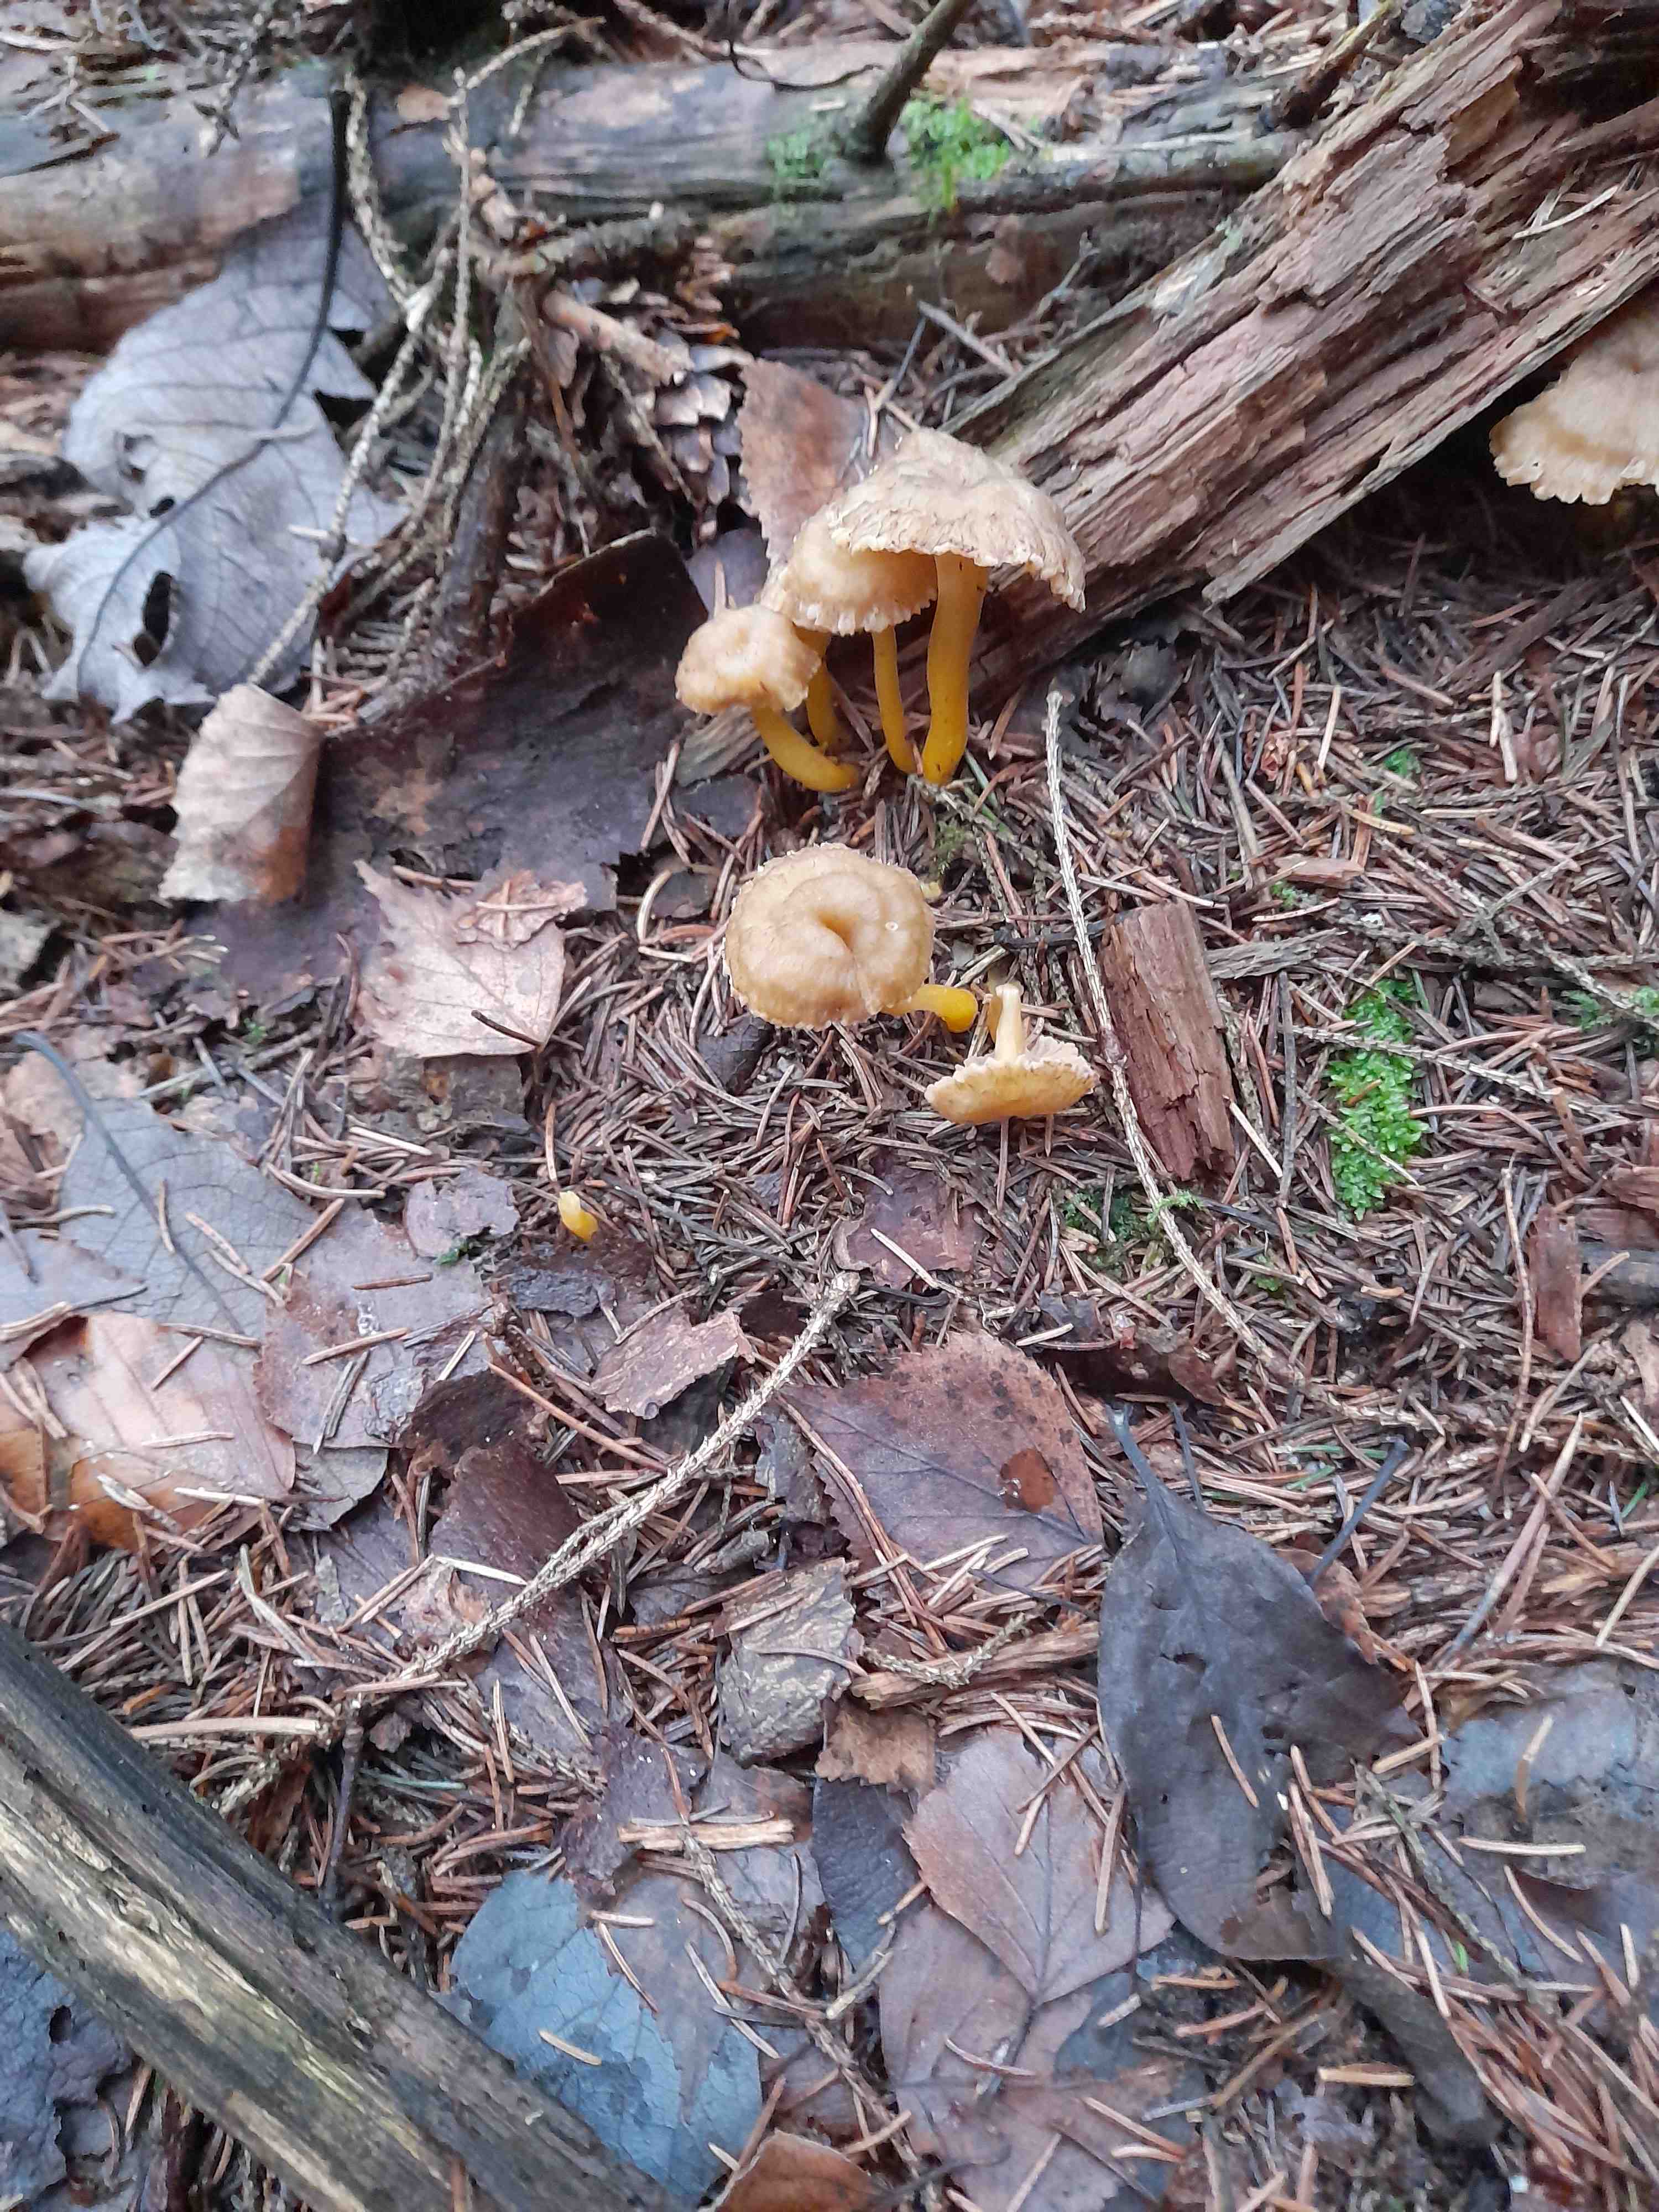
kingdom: Fungi
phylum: Basidiomycota
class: Agaricomycetes
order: Cantharellales
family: Hydnaceae
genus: Craterellus
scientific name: Craterellus tubaeformis
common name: tragt-kantarel
